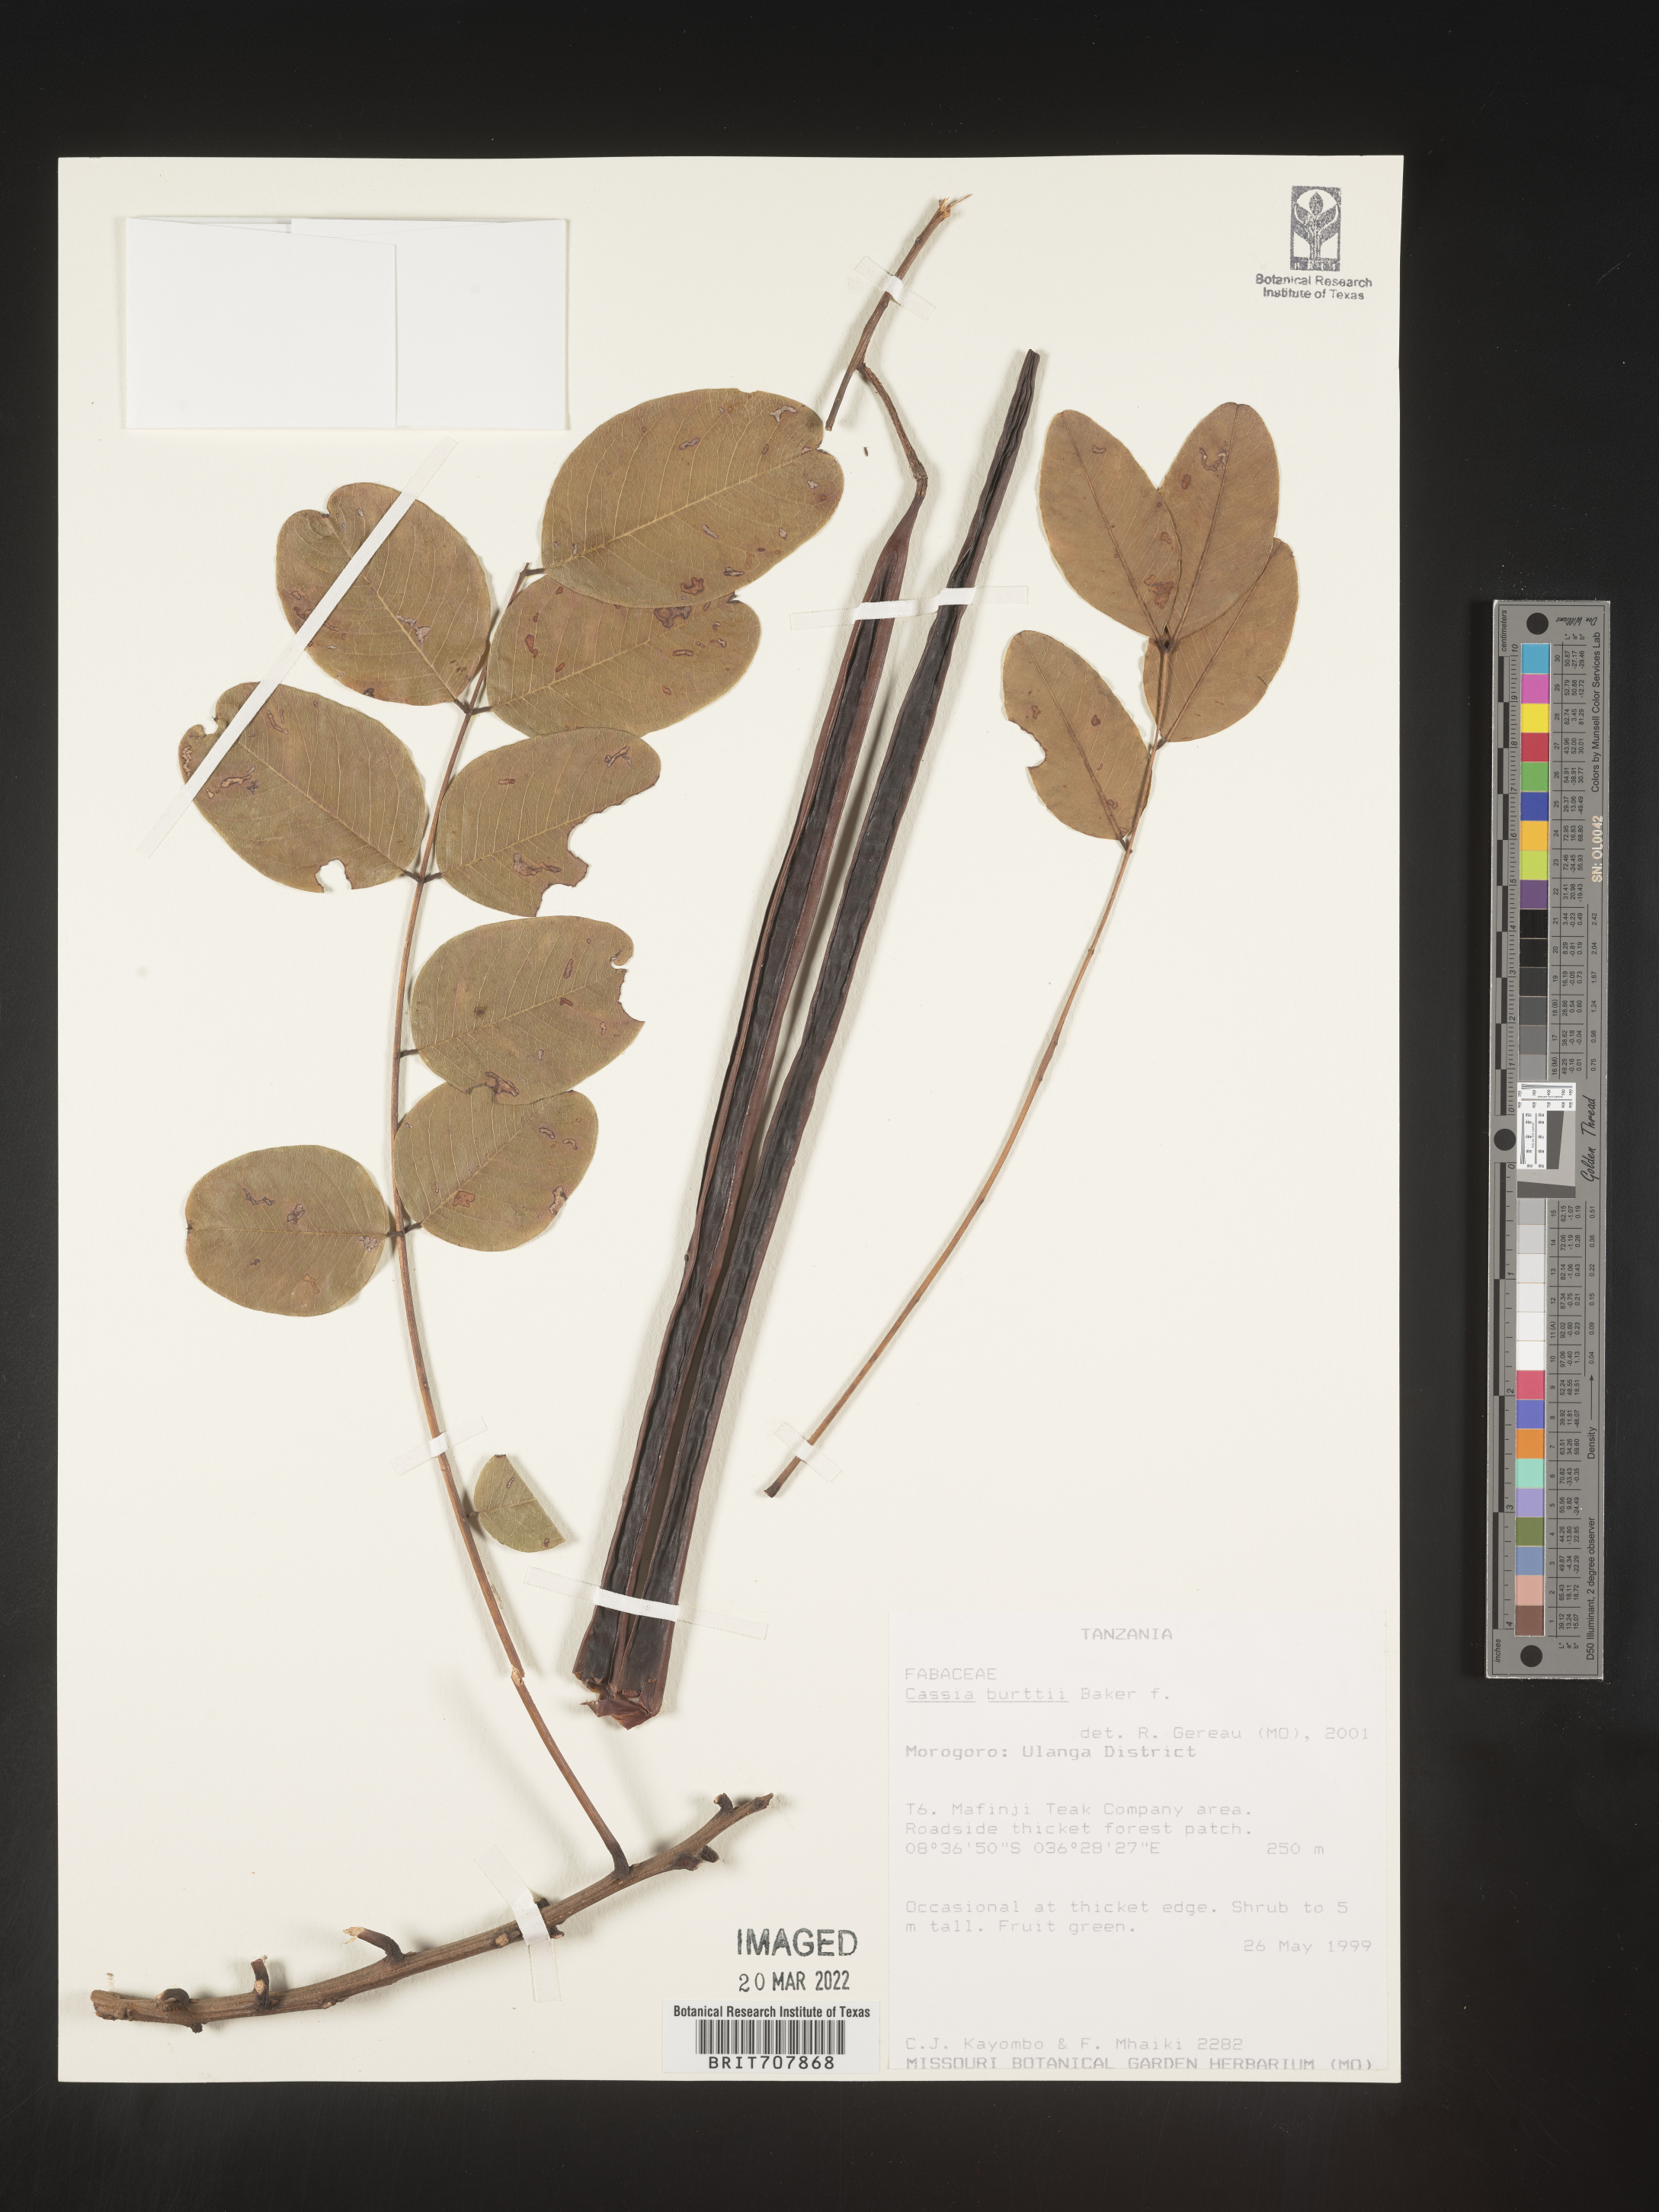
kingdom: Plantae
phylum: Tracheophyta
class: Magnoliopsida
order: Fabales
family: Fabaceae
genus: Cassia
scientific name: Cassia
